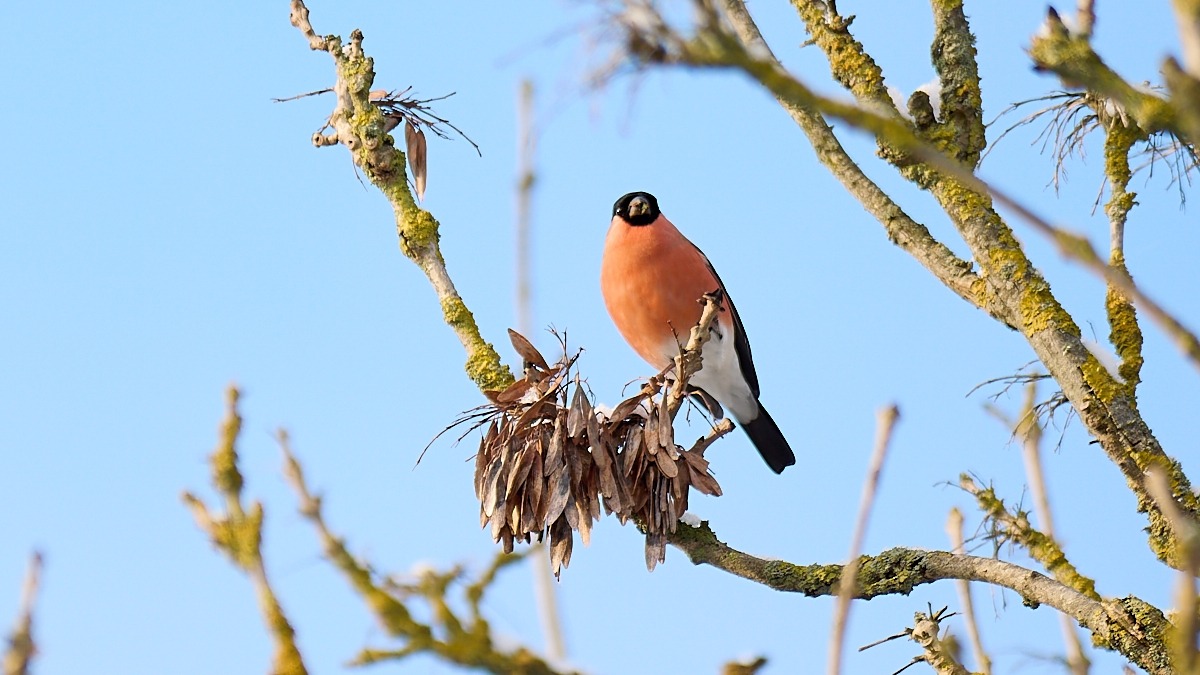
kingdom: Animalia
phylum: Chordata
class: Aves
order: Passeriformes
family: Fringillidae
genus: Pyrrhula
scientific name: Pyrrhula pyrrhula
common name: Dompap
